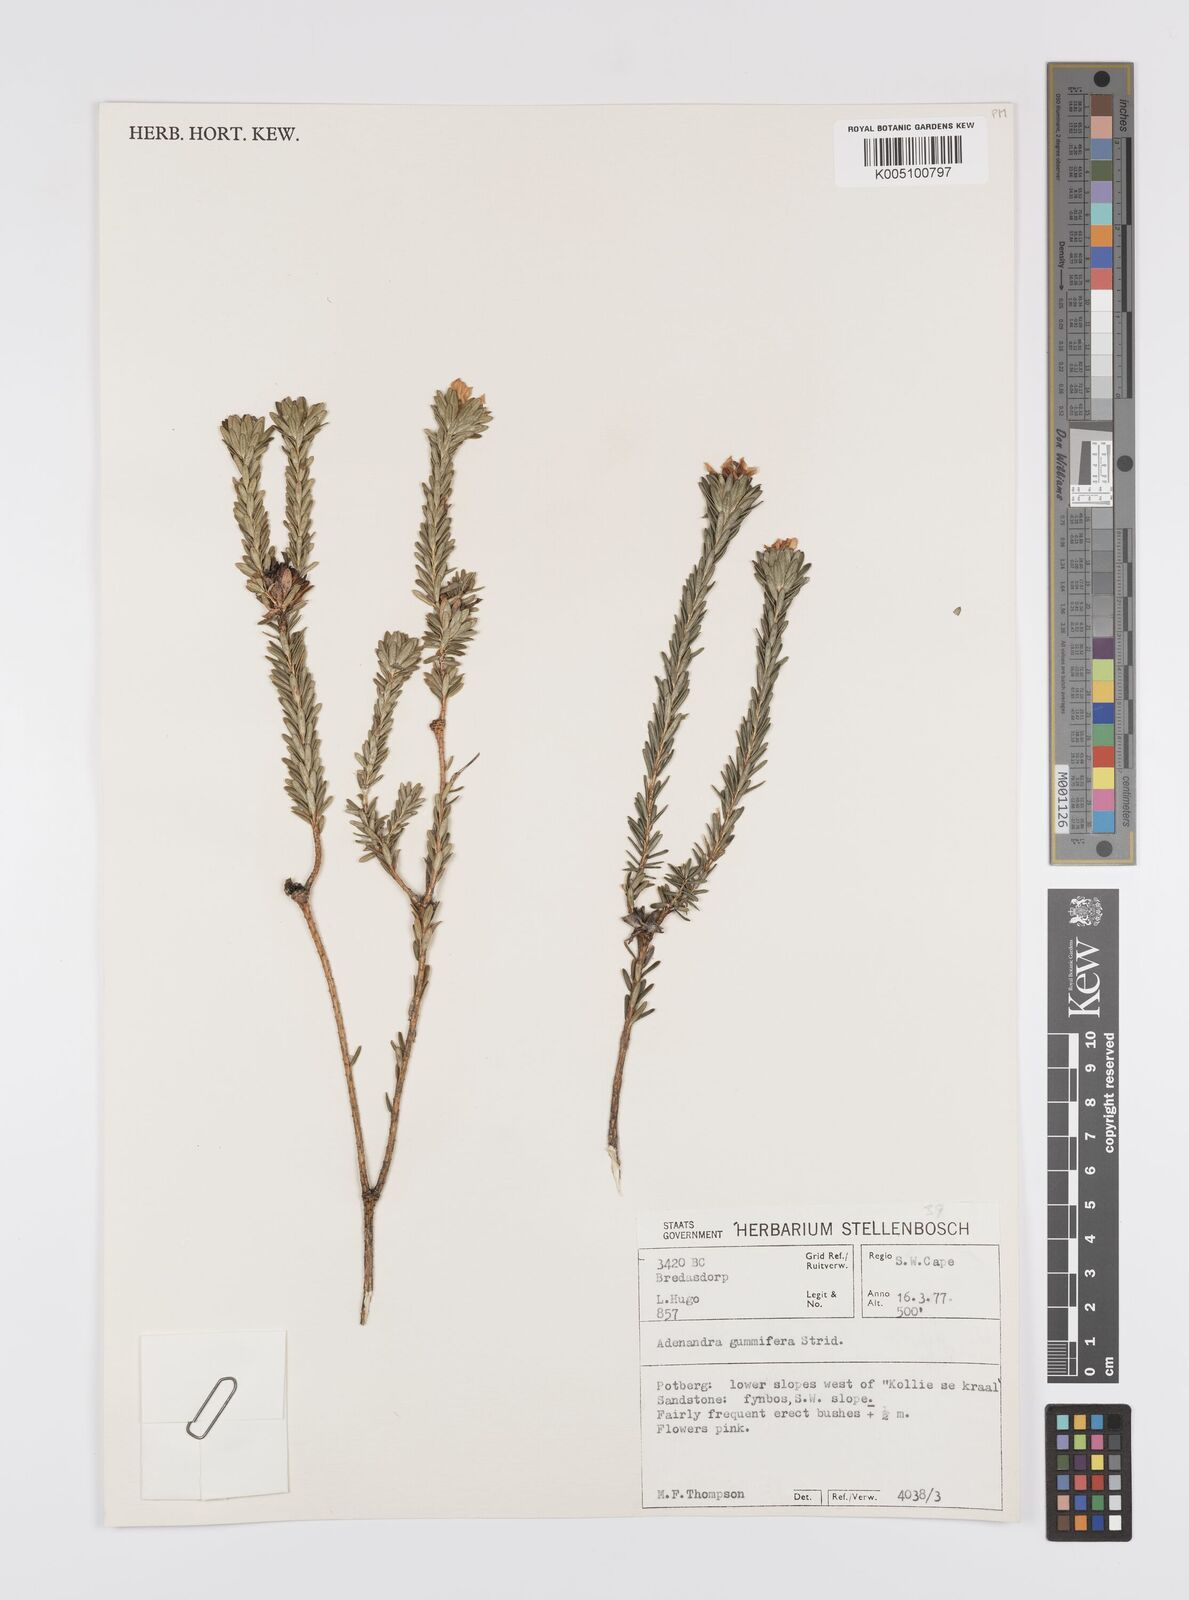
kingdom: Plantae
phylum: Tracheophyta
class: Magnoliopsida
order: Sapindales
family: Rutaceae
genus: Adenandra
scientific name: Adenandra gummifera
